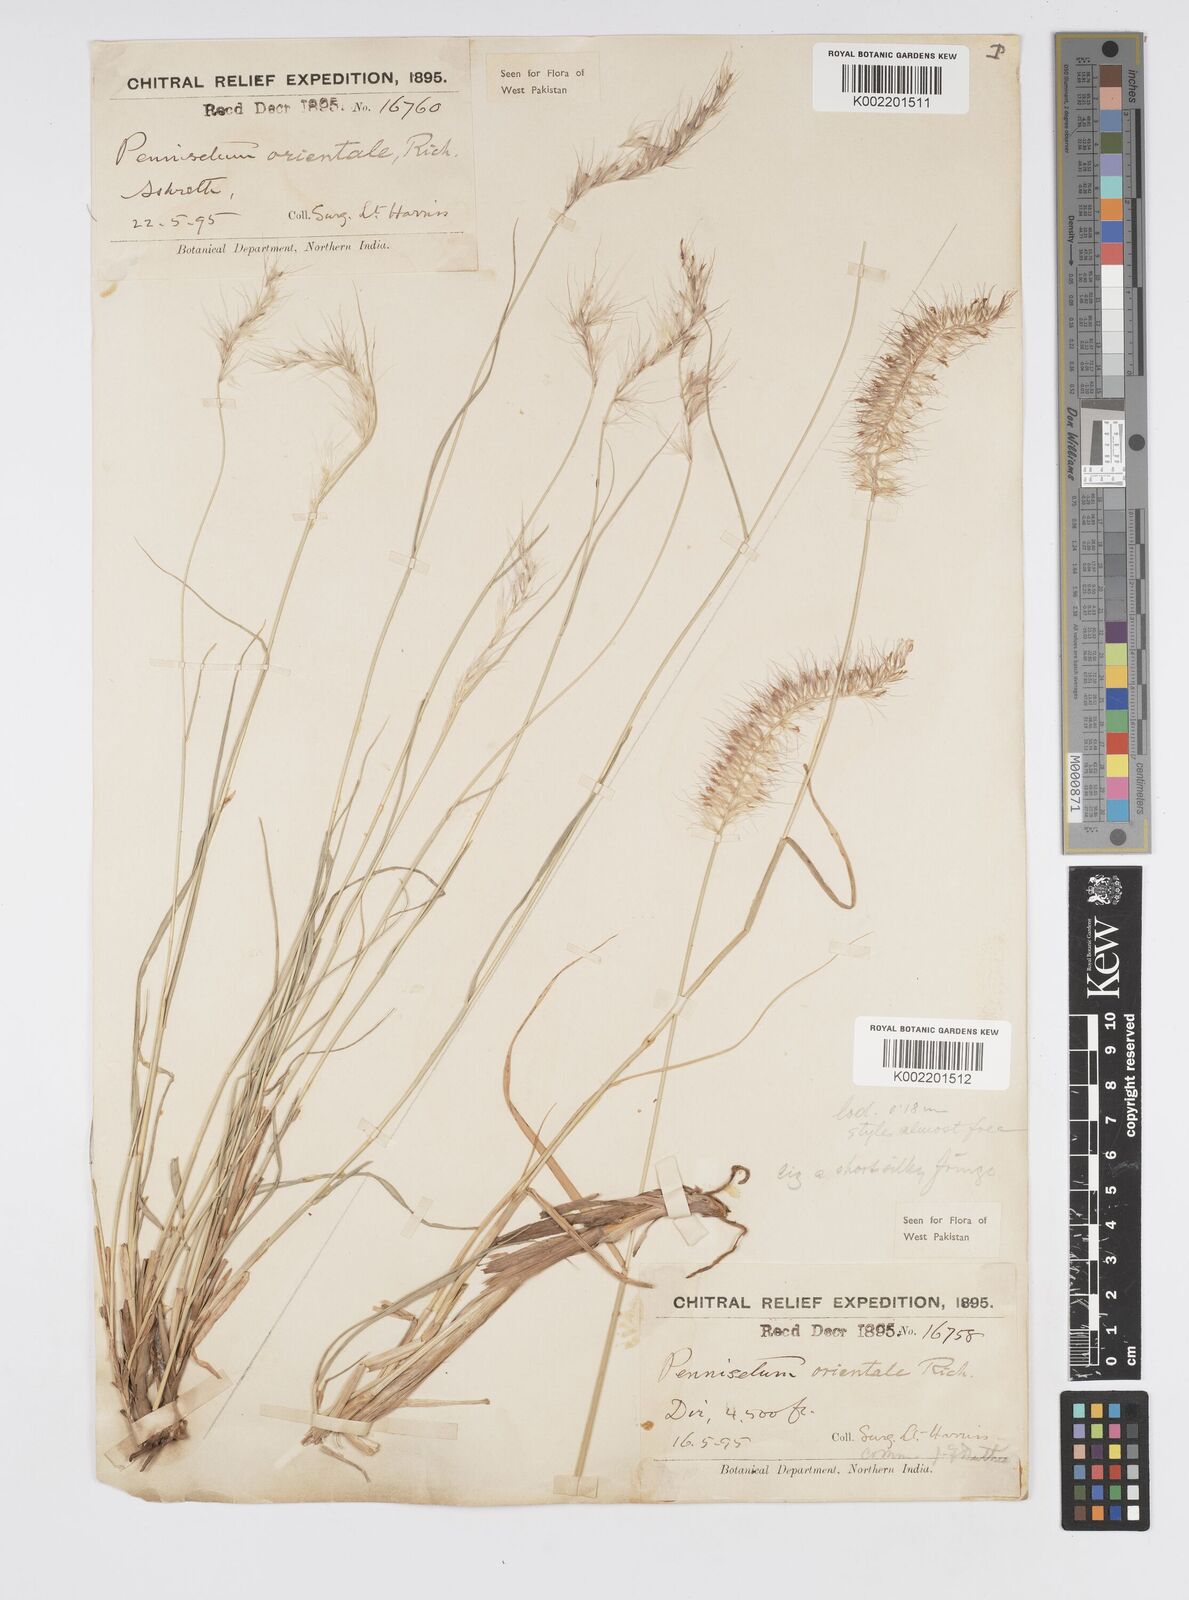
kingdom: Plantae
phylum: Tracheophyta
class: Liliopsida
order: Poales
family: Poaceae
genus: Cenchrus
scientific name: Cenchrus orientalis
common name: Oriental fountain grass
